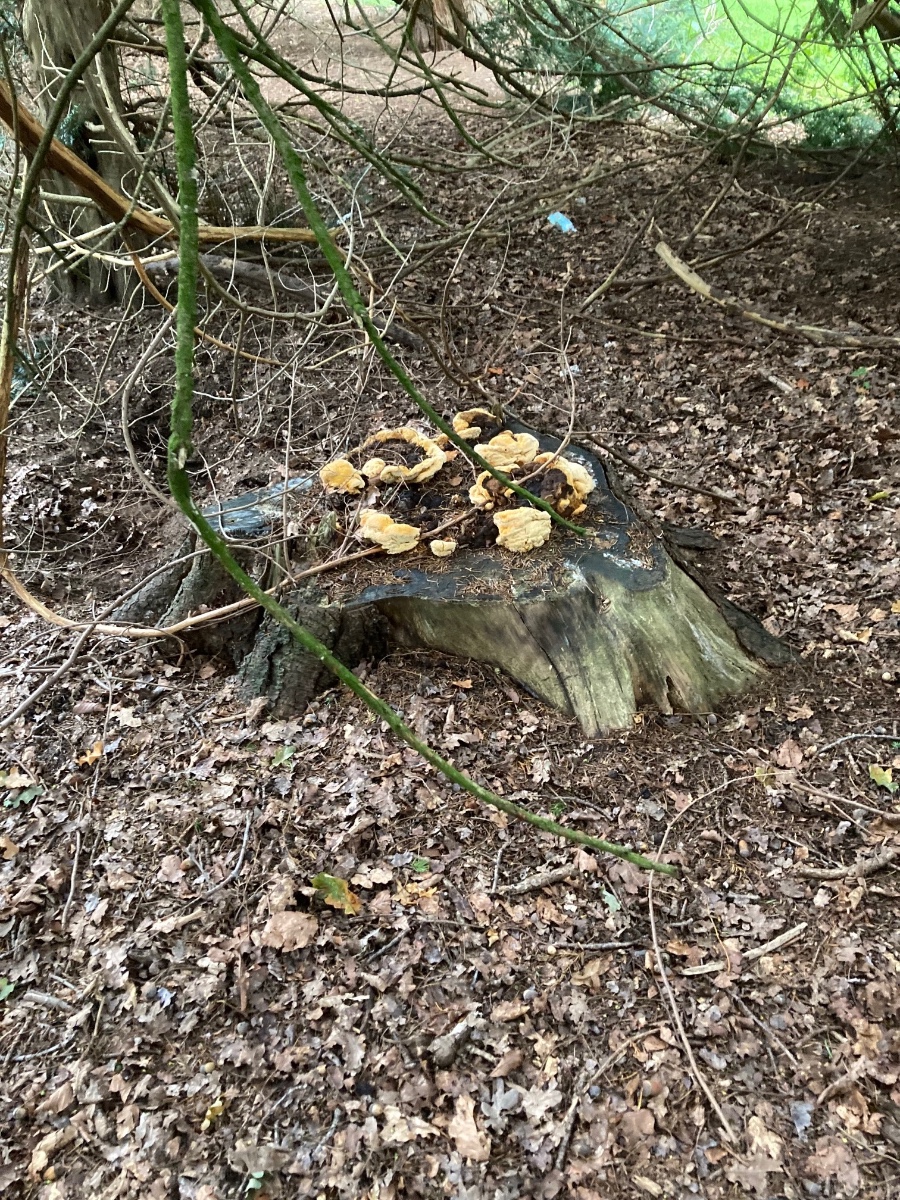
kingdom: Fungi
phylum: Basidiomycota
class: Agaricomycetes
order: Gloeophyllales
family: Gloeophyllaceae
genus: Gloeophyllum
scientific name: Gloeophyllum odoratum
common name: duftende korkhat
